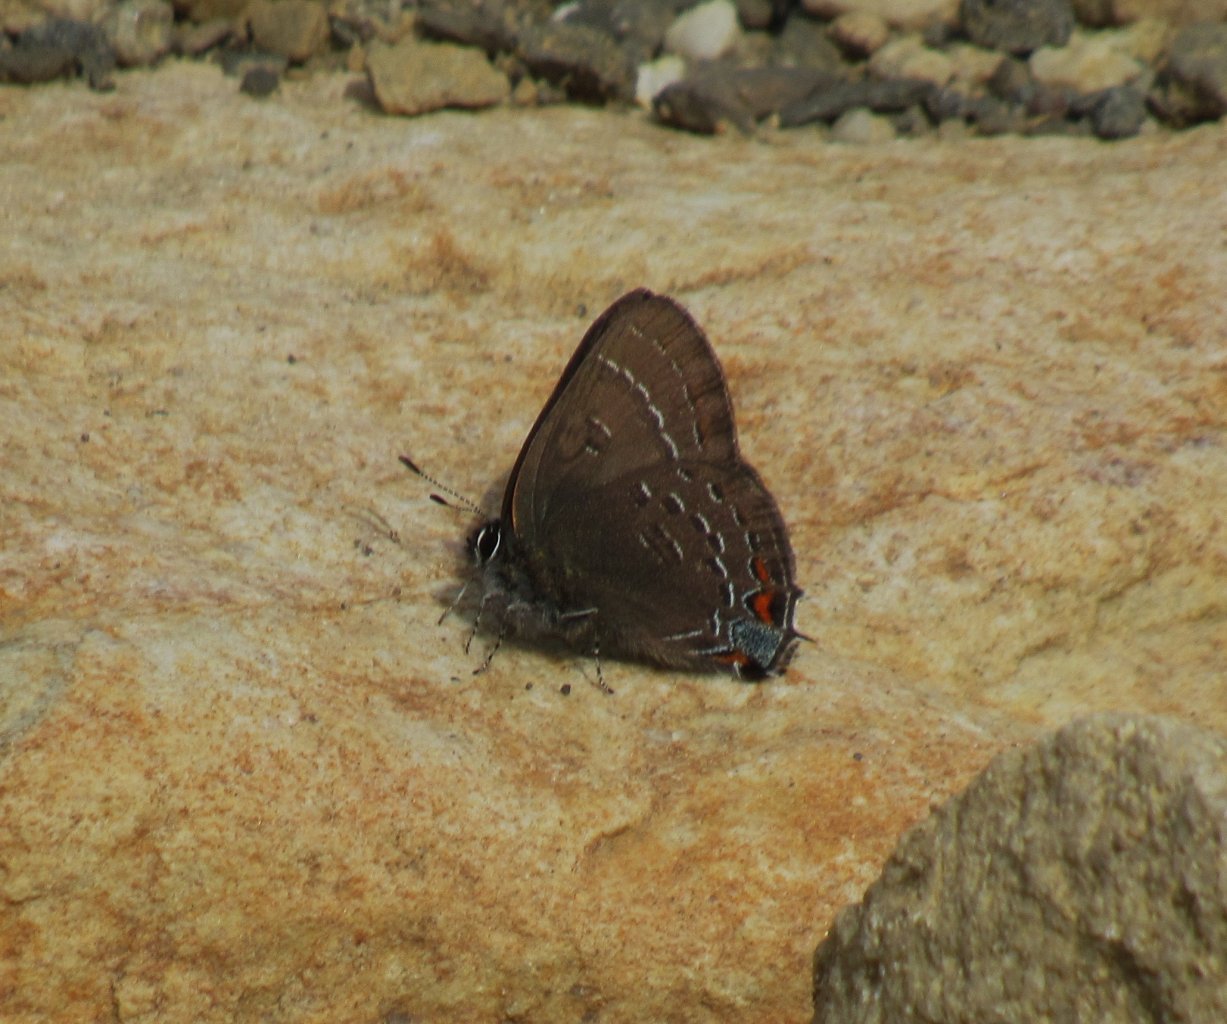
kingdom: Animalia
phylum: Arthropoda
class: Insecta
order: Lepidoptera
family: Lycaenidae
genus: Satyrium
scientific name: Satyrium calanus
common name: Banded Hairstreak
